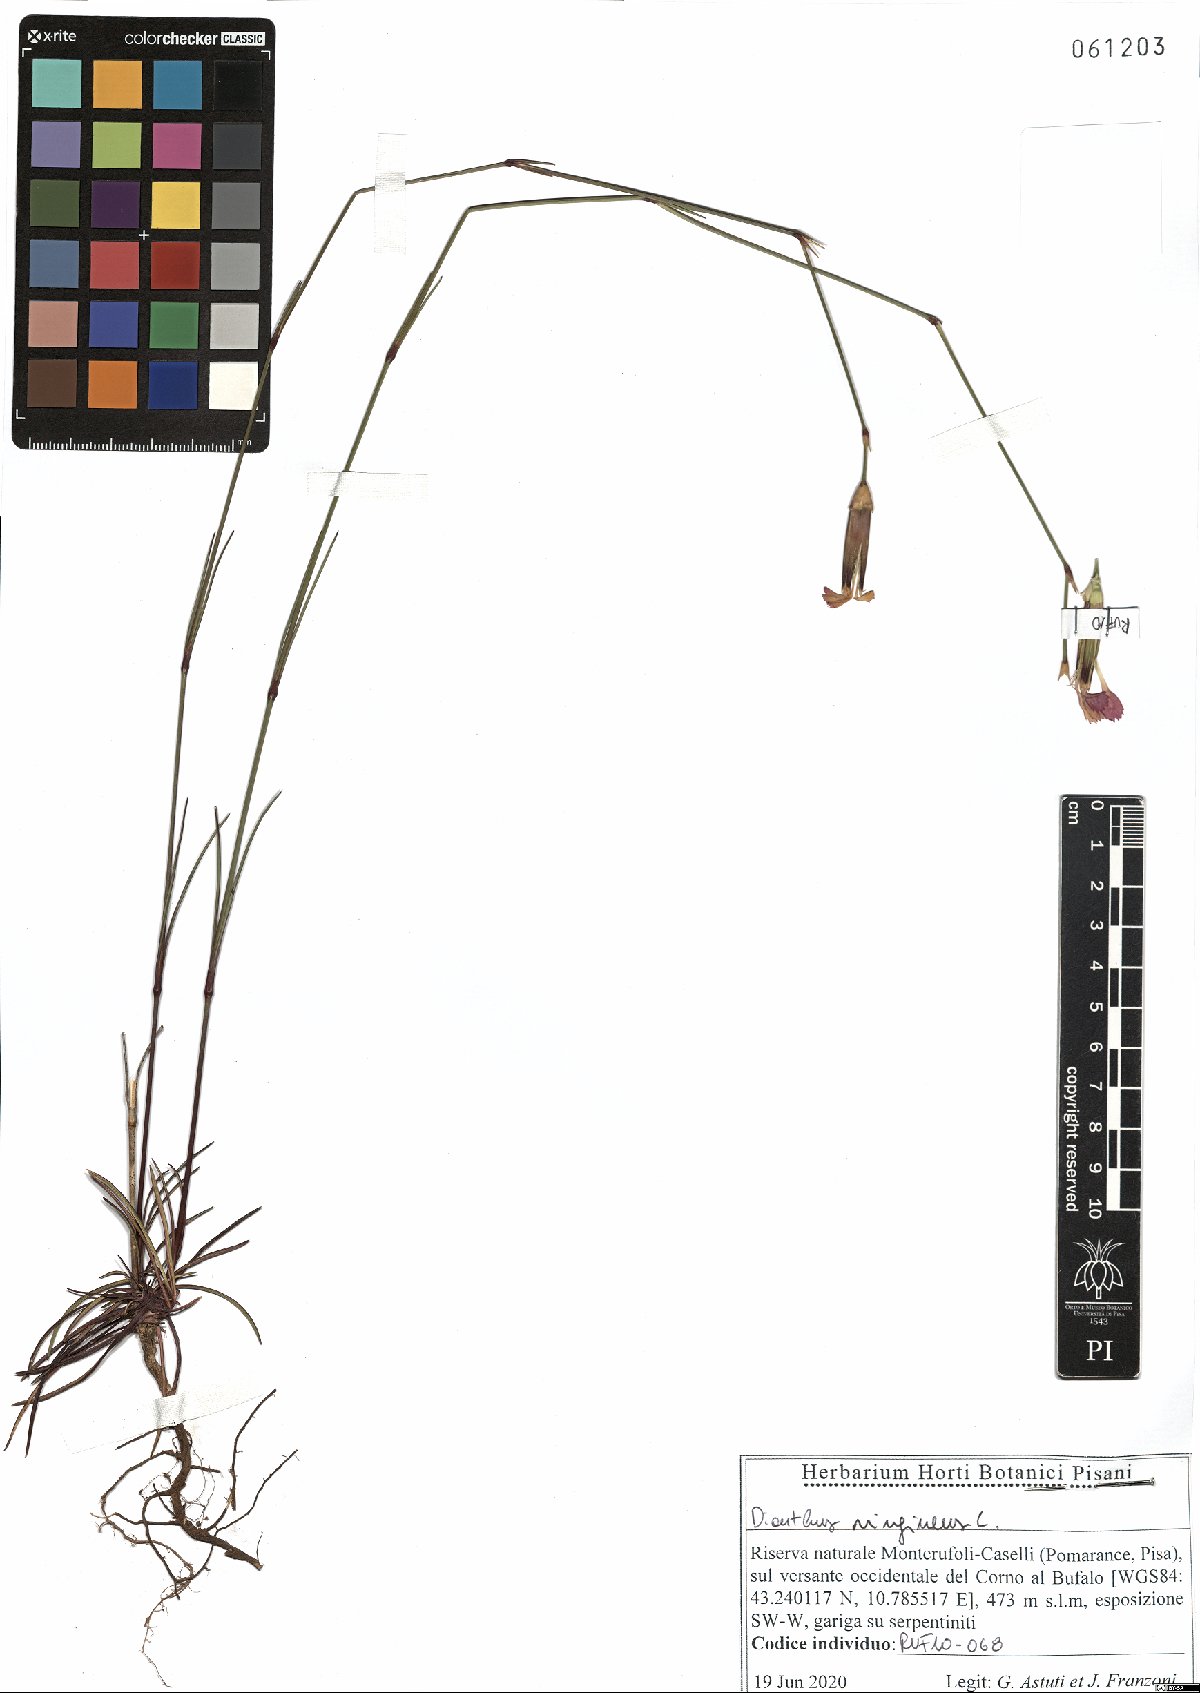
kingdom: Plantae
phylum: Tracheophyta
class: Magnoliopsida
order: Caryophyllales
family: Caryophyllaceae
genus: Dianthus
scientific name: Dianthus virgineus
